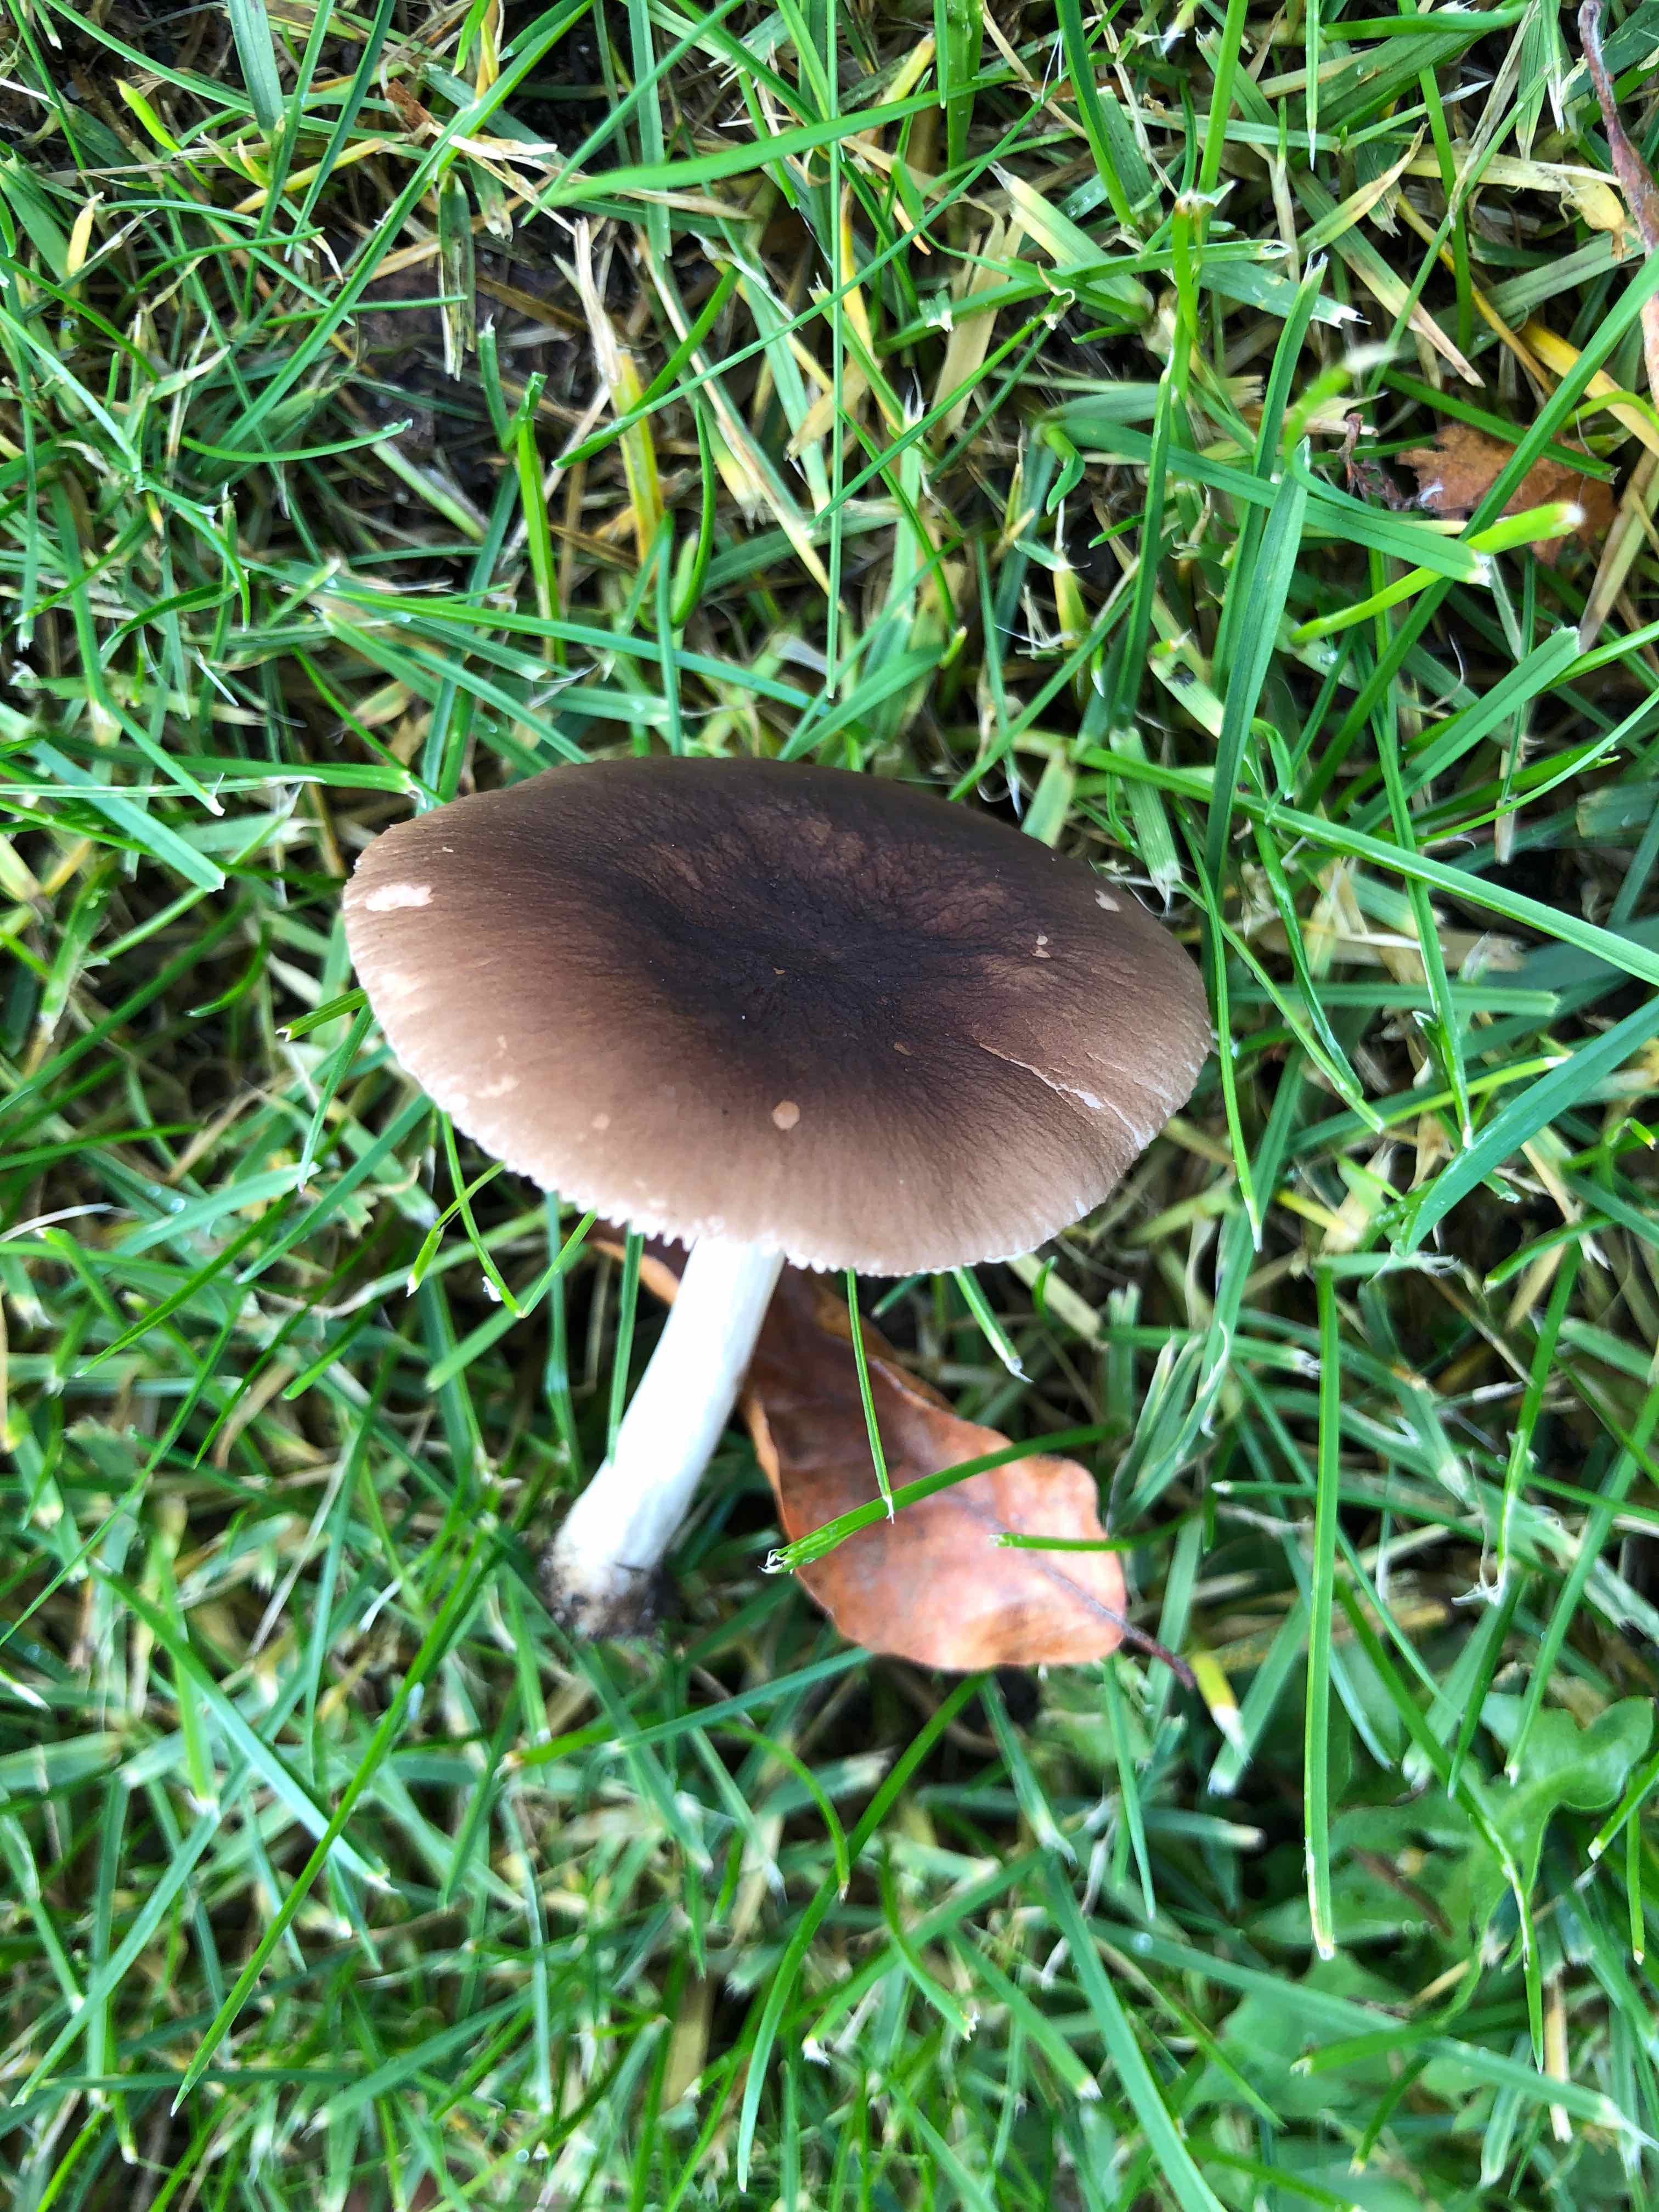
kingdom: Fungi
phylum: Basidiomycota
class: Agaricomycetes
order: Agaricales
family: Pluteaceae
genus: Pluteus
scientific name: Pluteus
